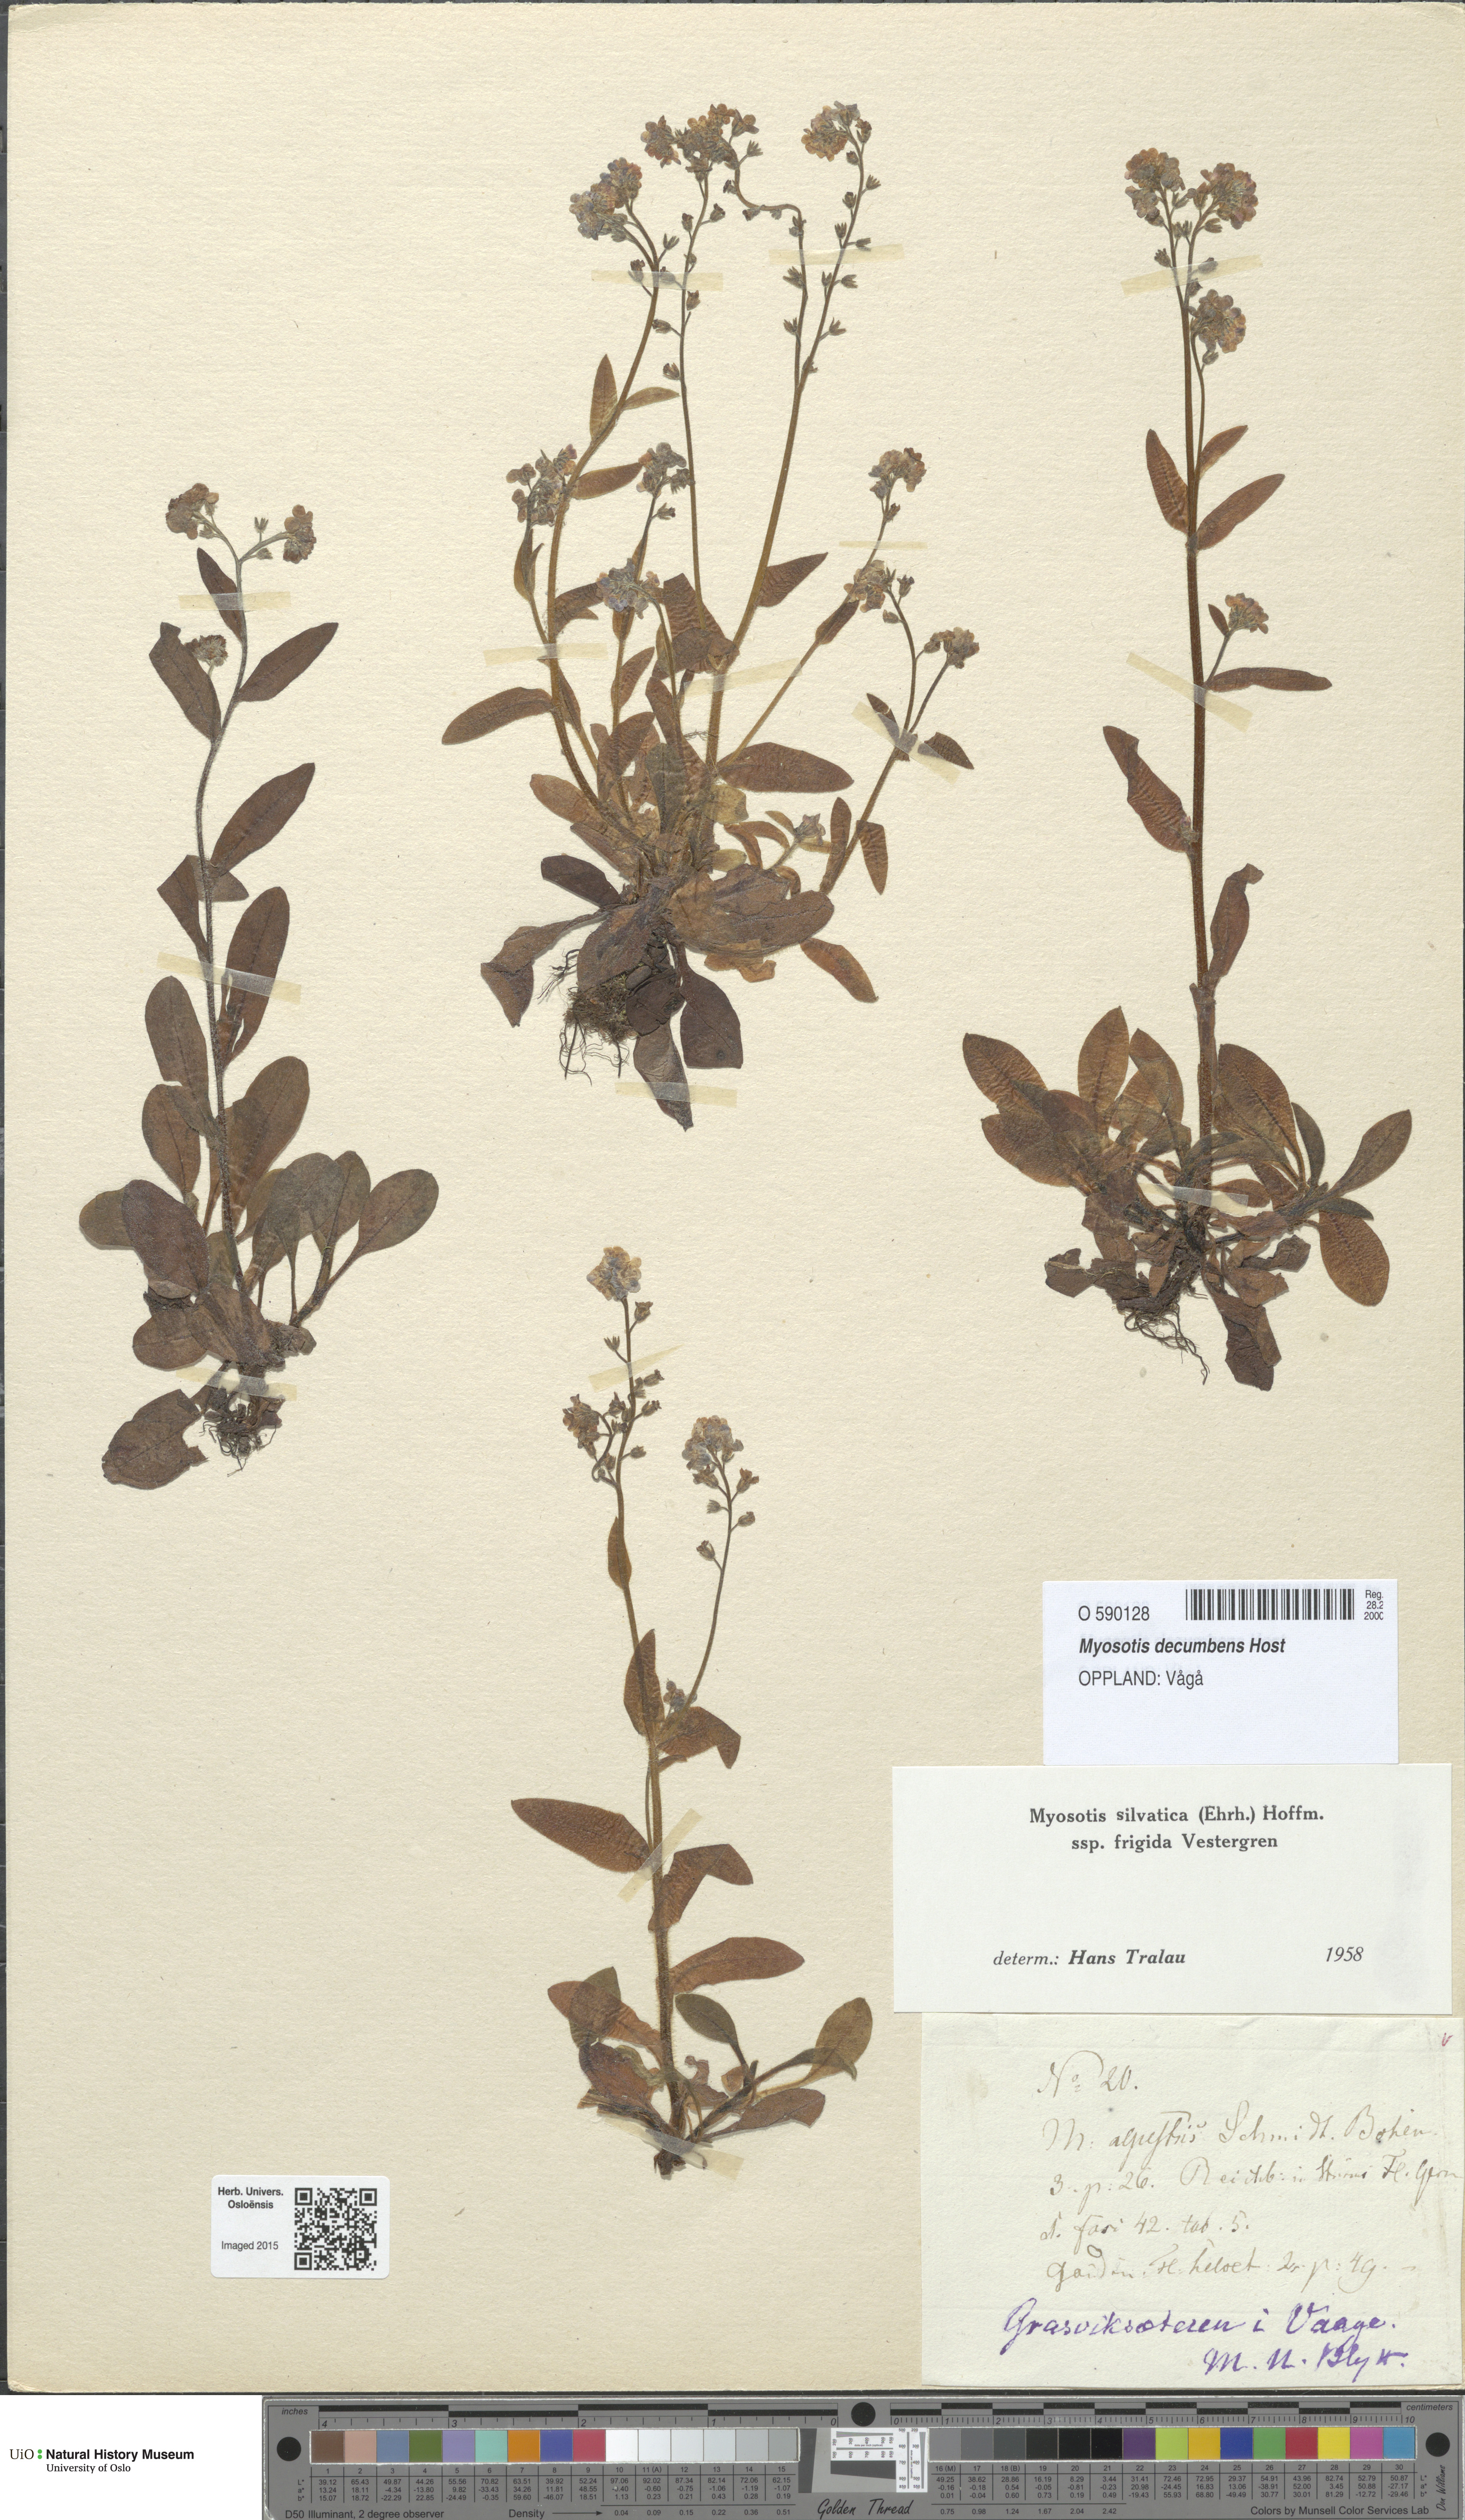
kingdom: Plantae
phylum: Tracheophyta
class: Magnoliopsida
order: Boraginales
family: Boraginaceae
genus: Myosotis
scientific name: Myosotis decumbens
